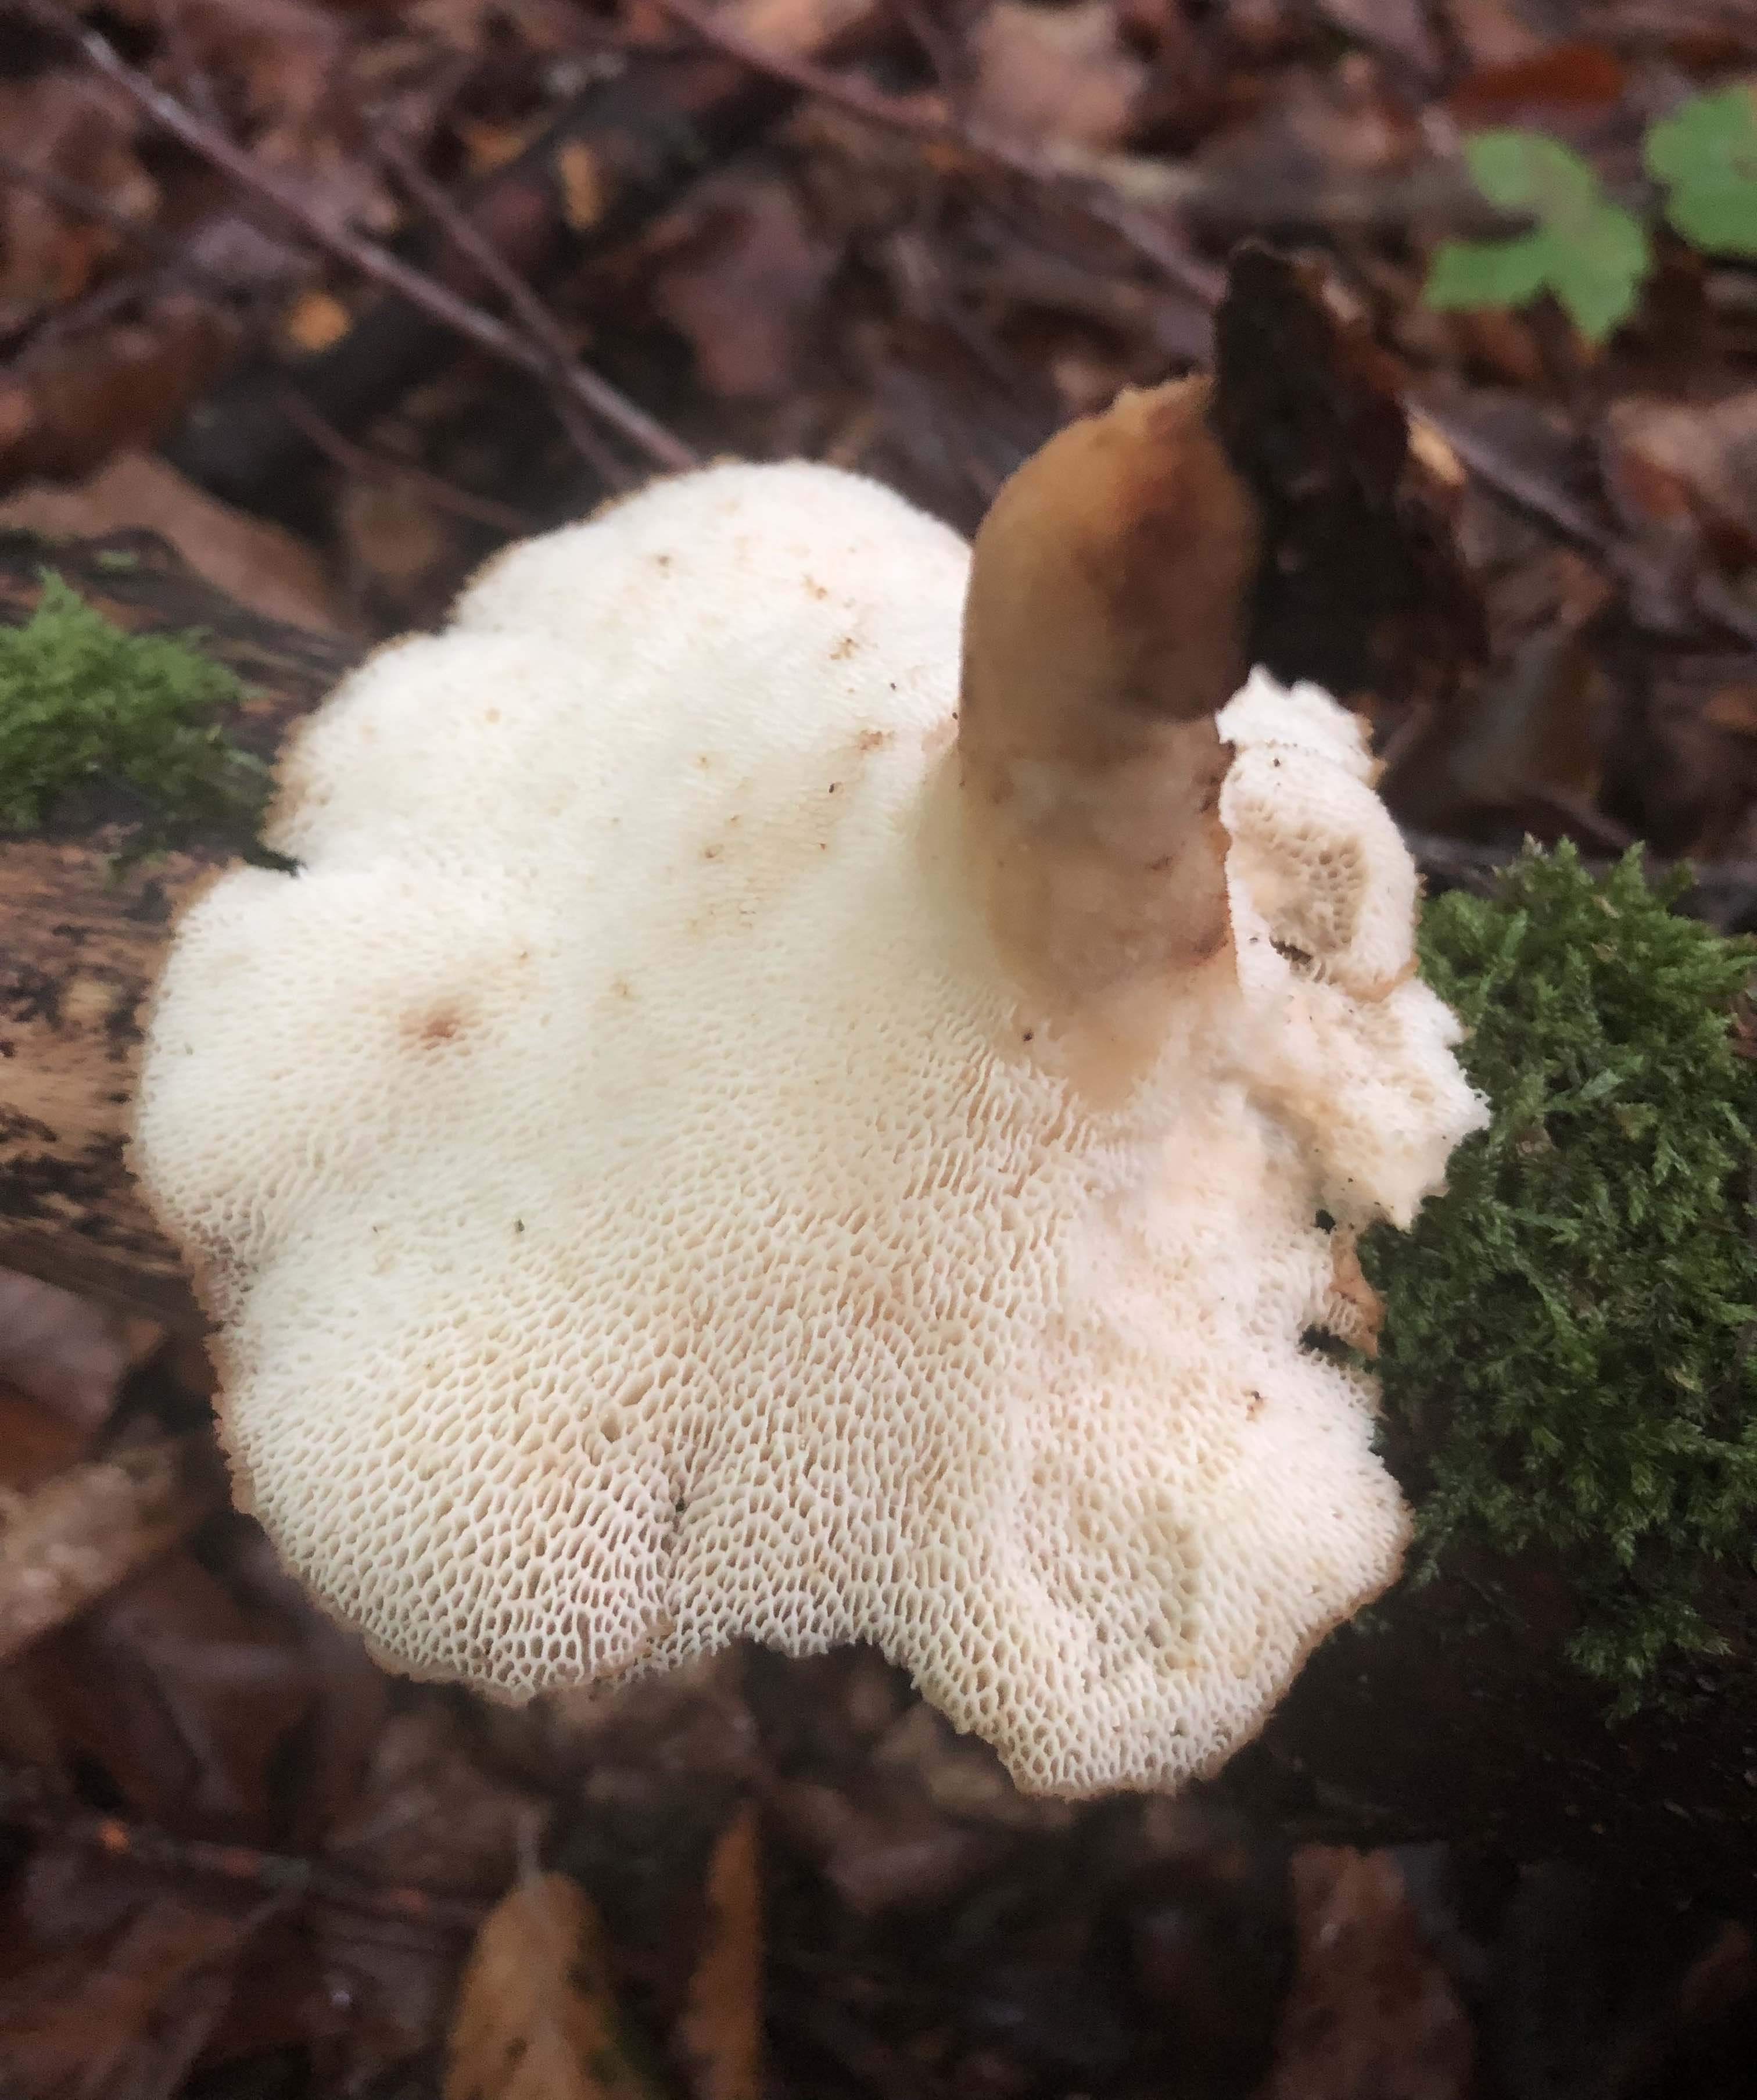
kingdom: Fungi
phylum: Basidiomycota
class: Agaricomycetes
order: Polyporales
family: Polyporaceae
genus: Lentinus
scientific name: Lentinus brumalis
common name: vinter-stilkporesvamp
